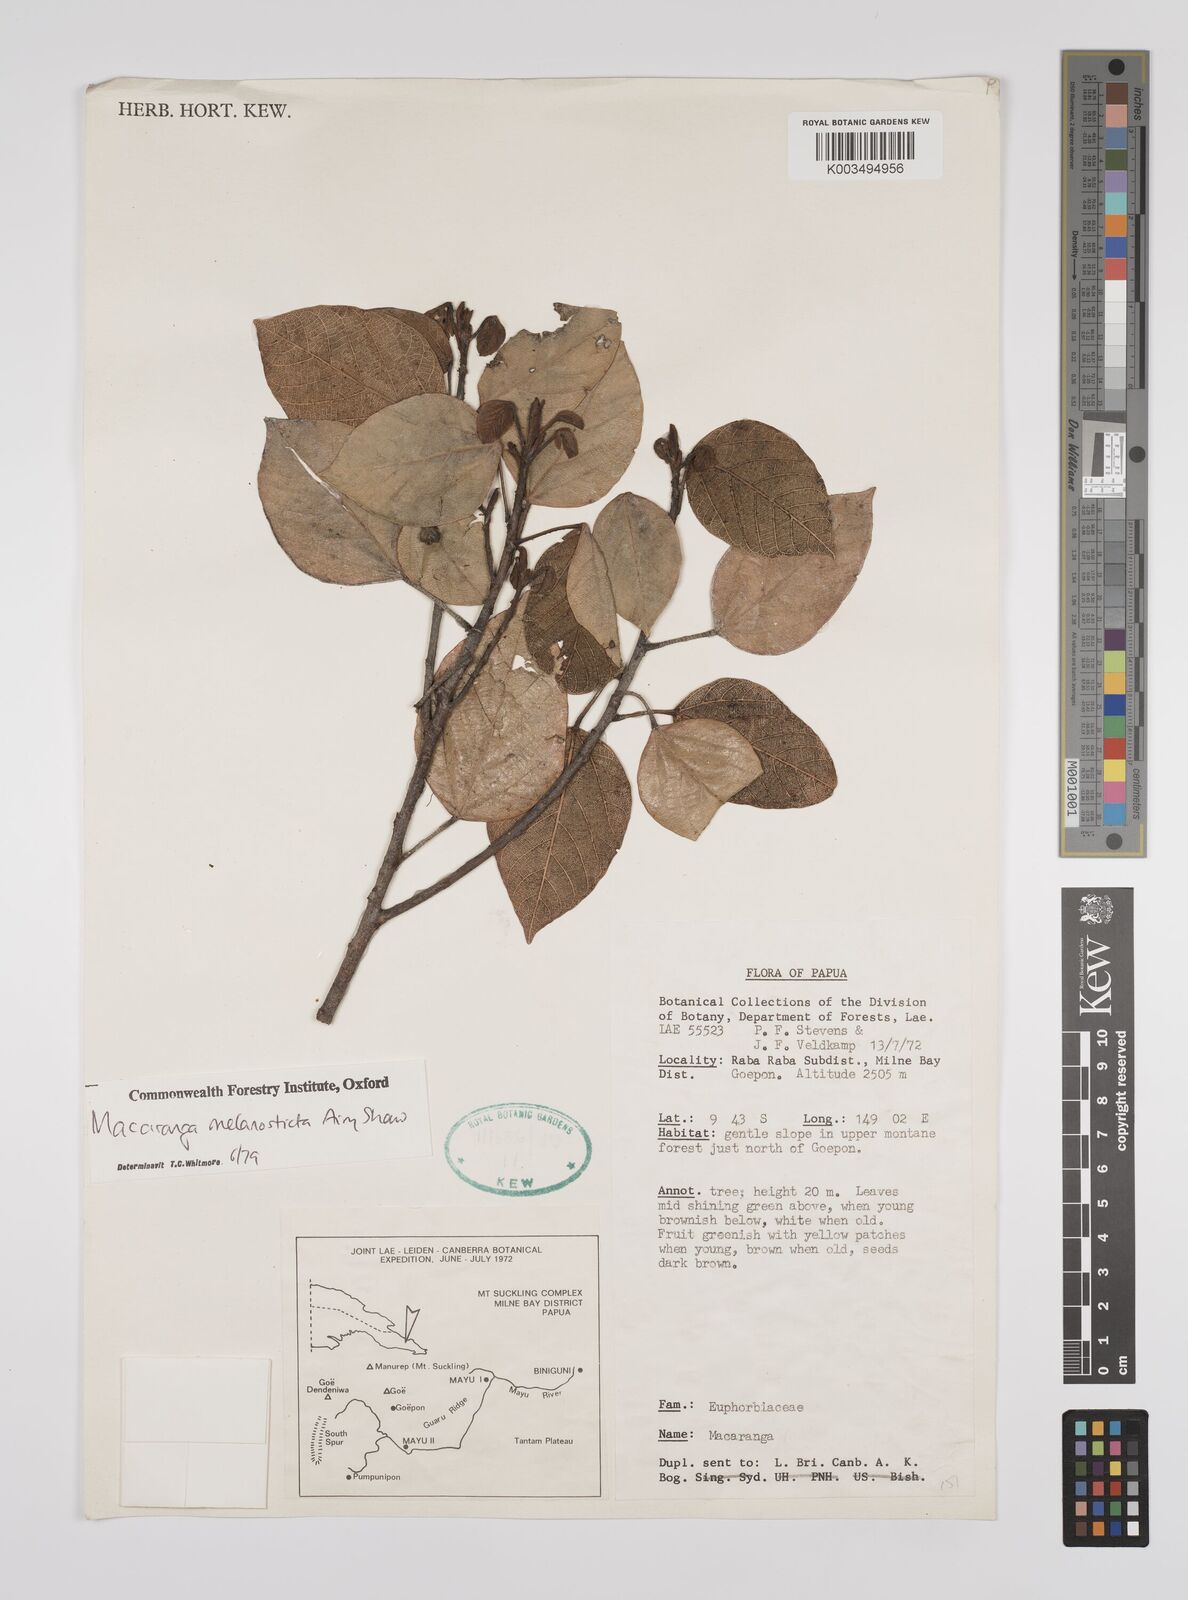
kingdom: Plantae
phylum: Tracheophyta
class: Magnoliopsida
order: Malpighiales
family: Euphorbiaceae
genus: Macaranga
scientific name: Macaranga melanosticta
